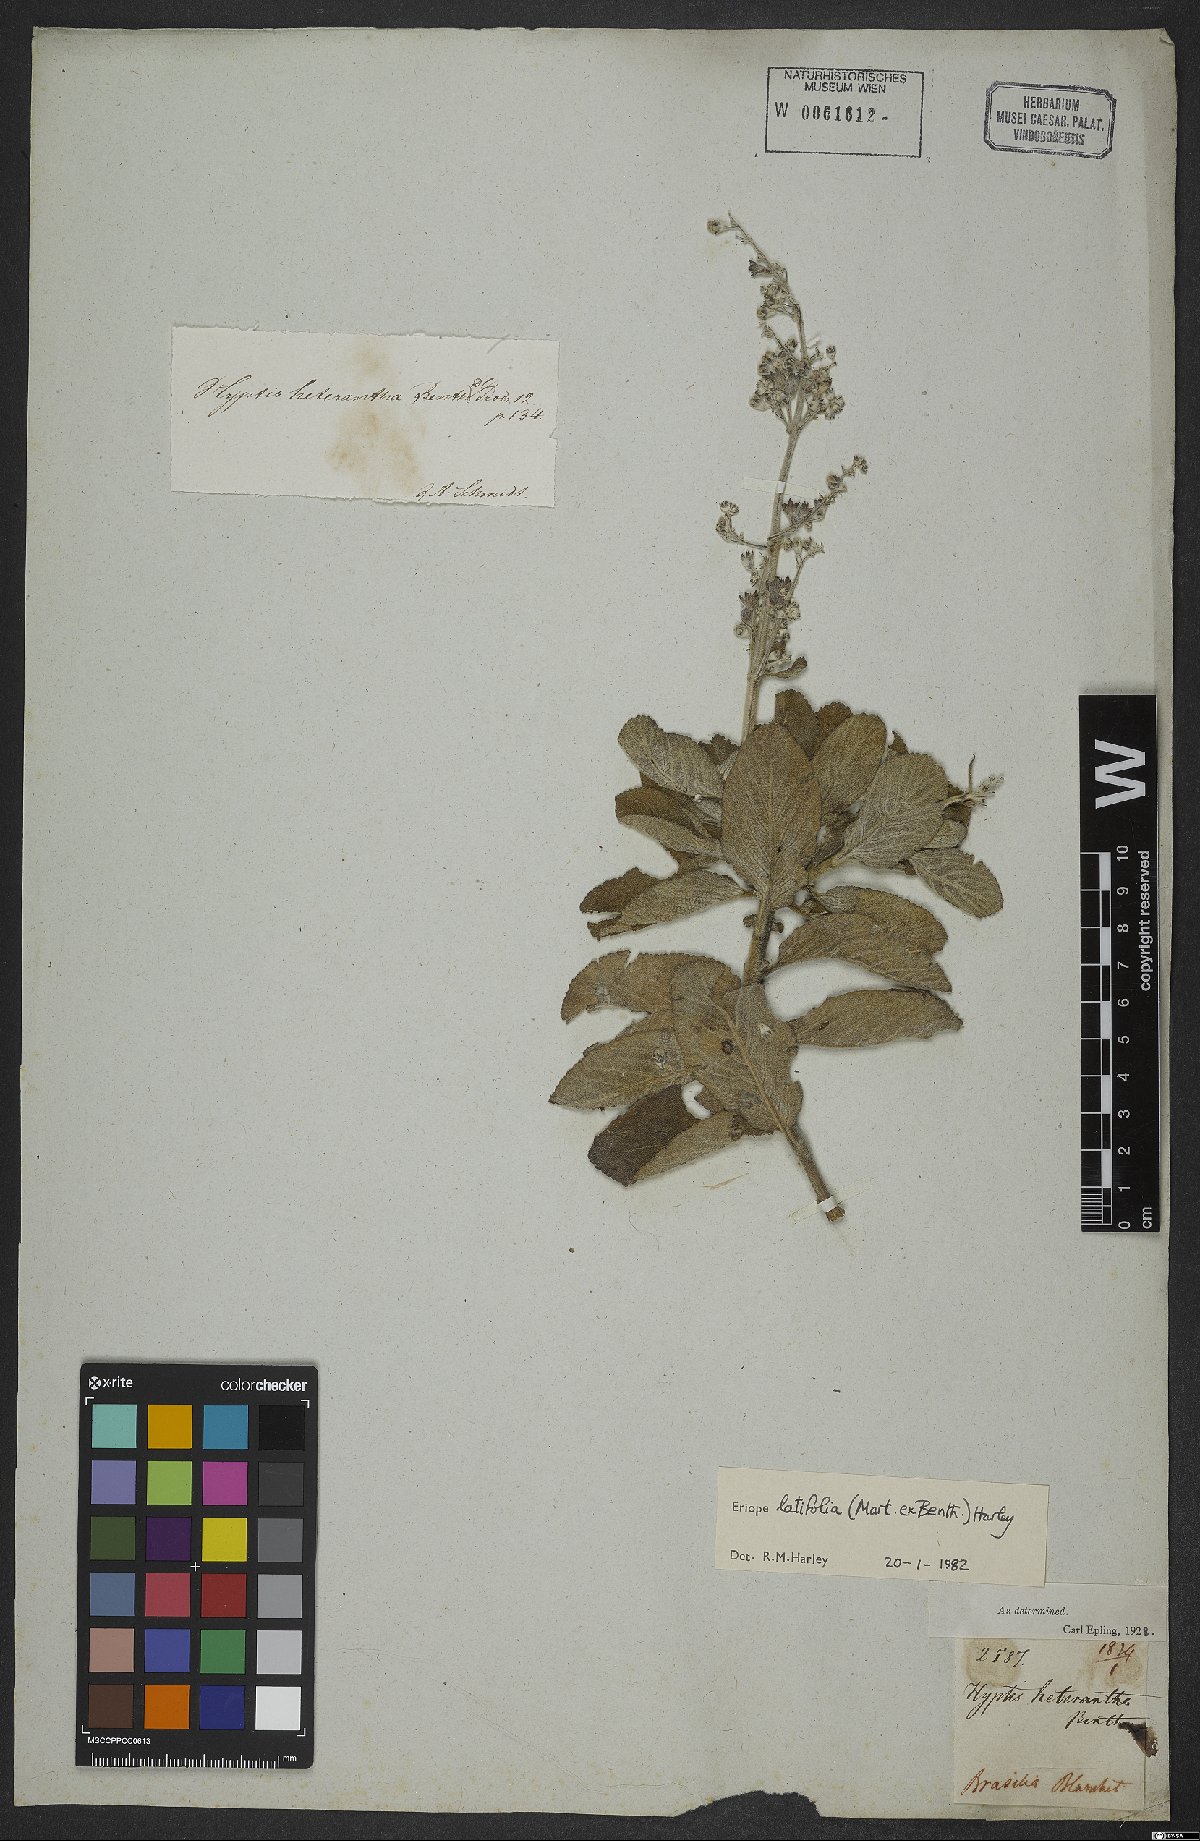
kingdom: Plantae
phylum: Tracheophyta
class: Magnoliopsida
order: Lamiales
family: Lamiaceae
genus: Eriope
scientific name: Eriope latifolia
